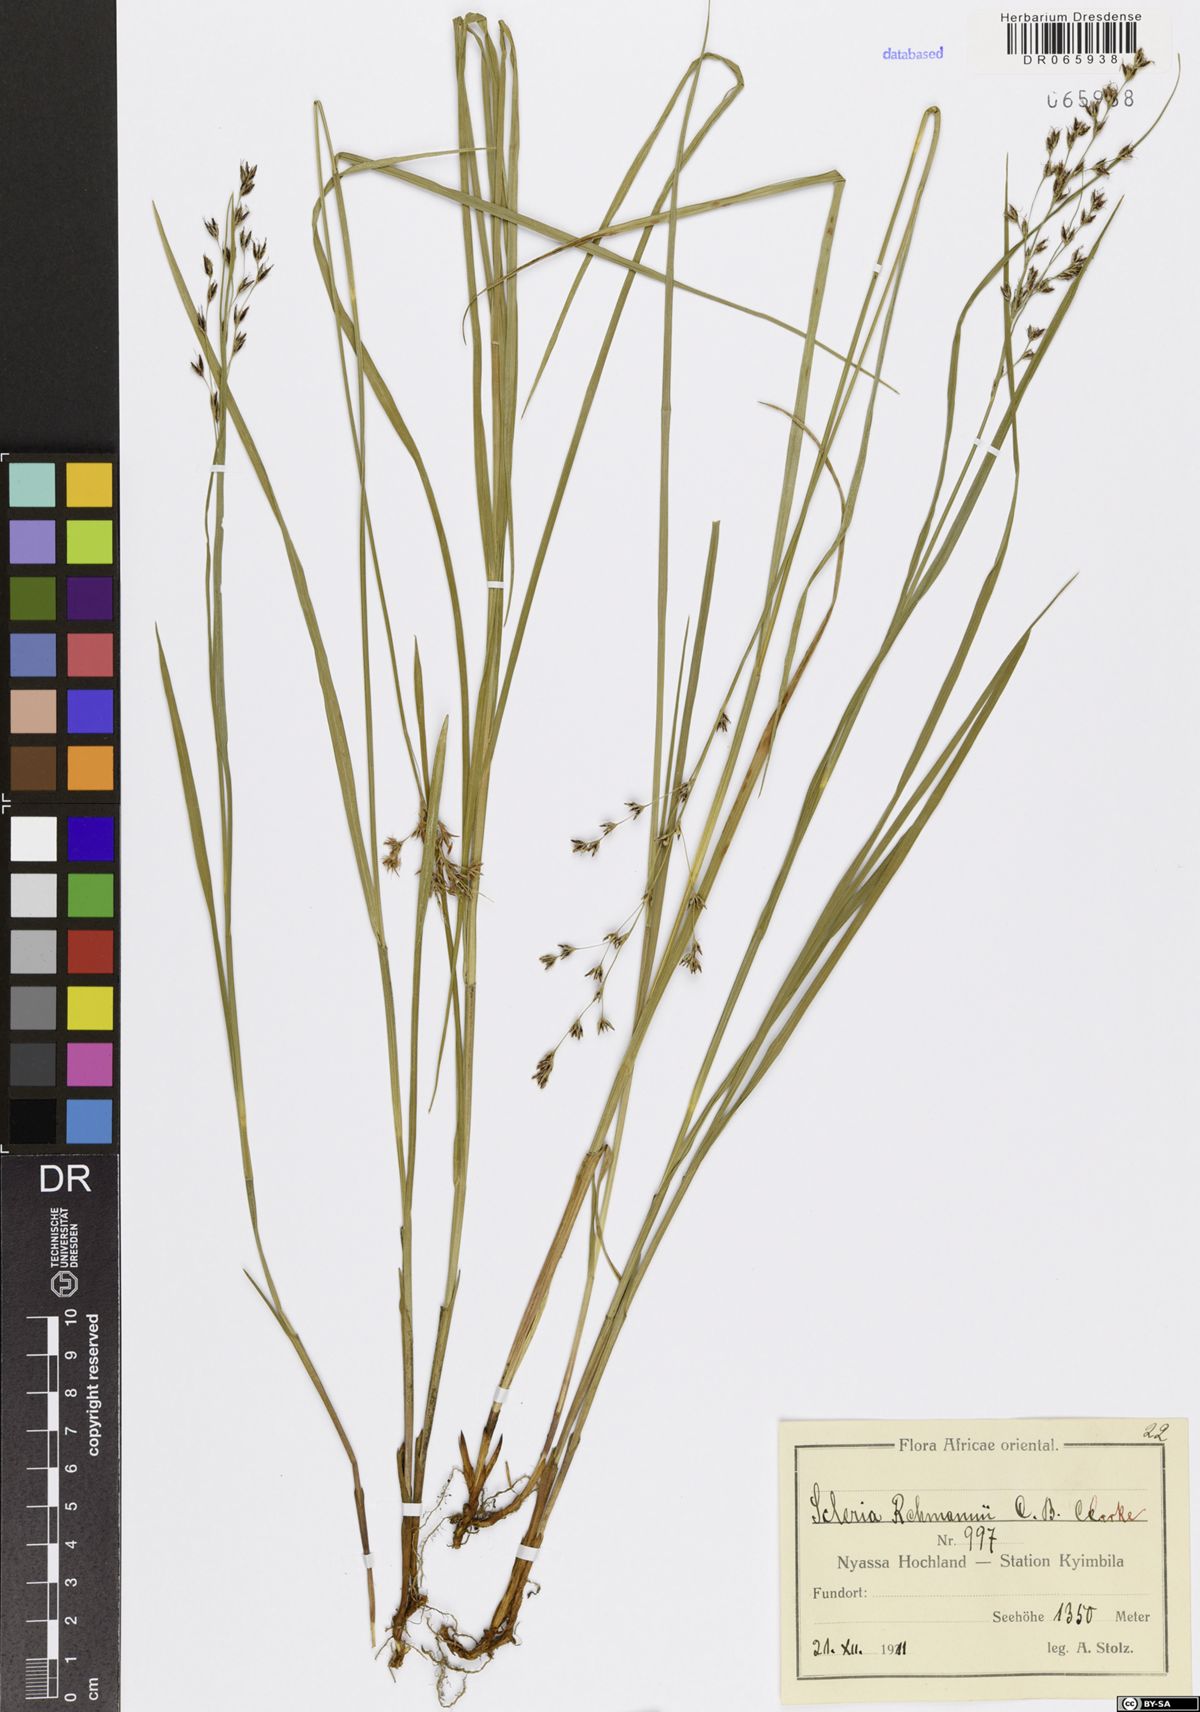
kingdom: Plantae
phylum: Tracheophyta
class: Liliopsida
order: Poales
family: Cyperaceae
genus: Scleria
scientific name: Scleria rehmannii
